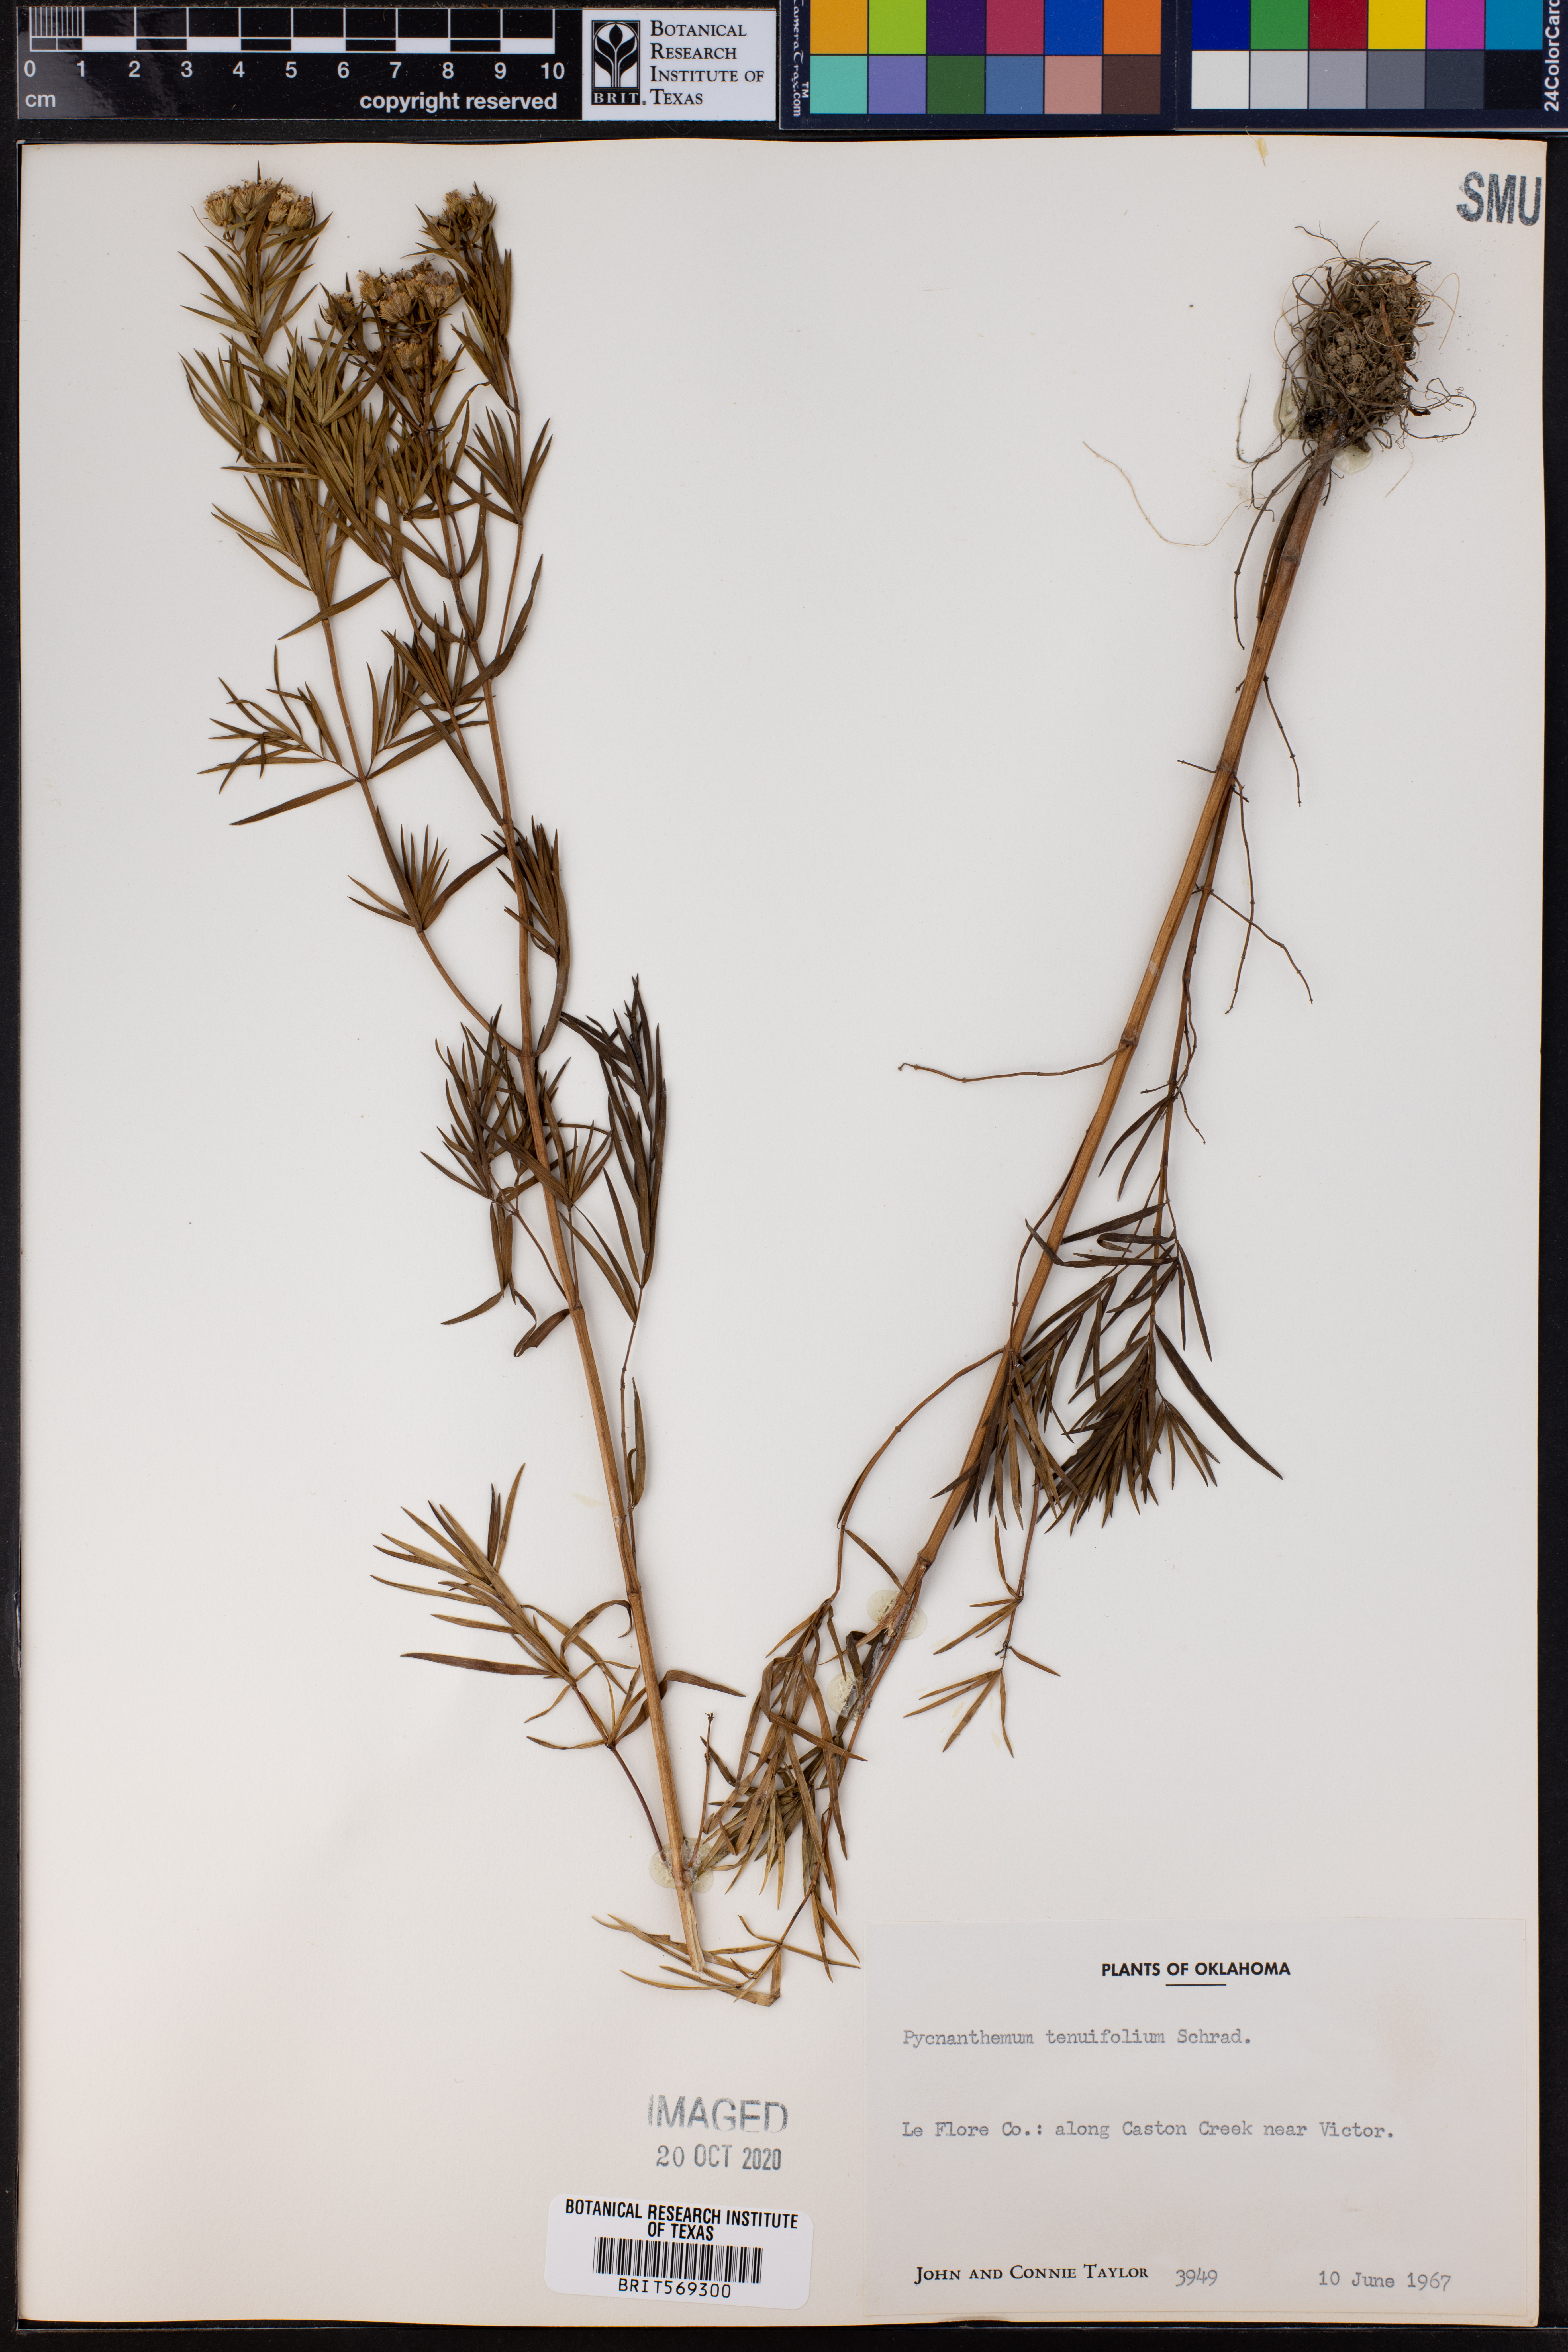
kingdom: Plantae
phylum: Tracheophyta
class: Magnoliopsida
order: Lamiales
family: Lamiaceae
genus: Pycnanthemum
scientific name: Pycnanthemum tenuifolium
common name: Narrow-leaf mountain-mint
